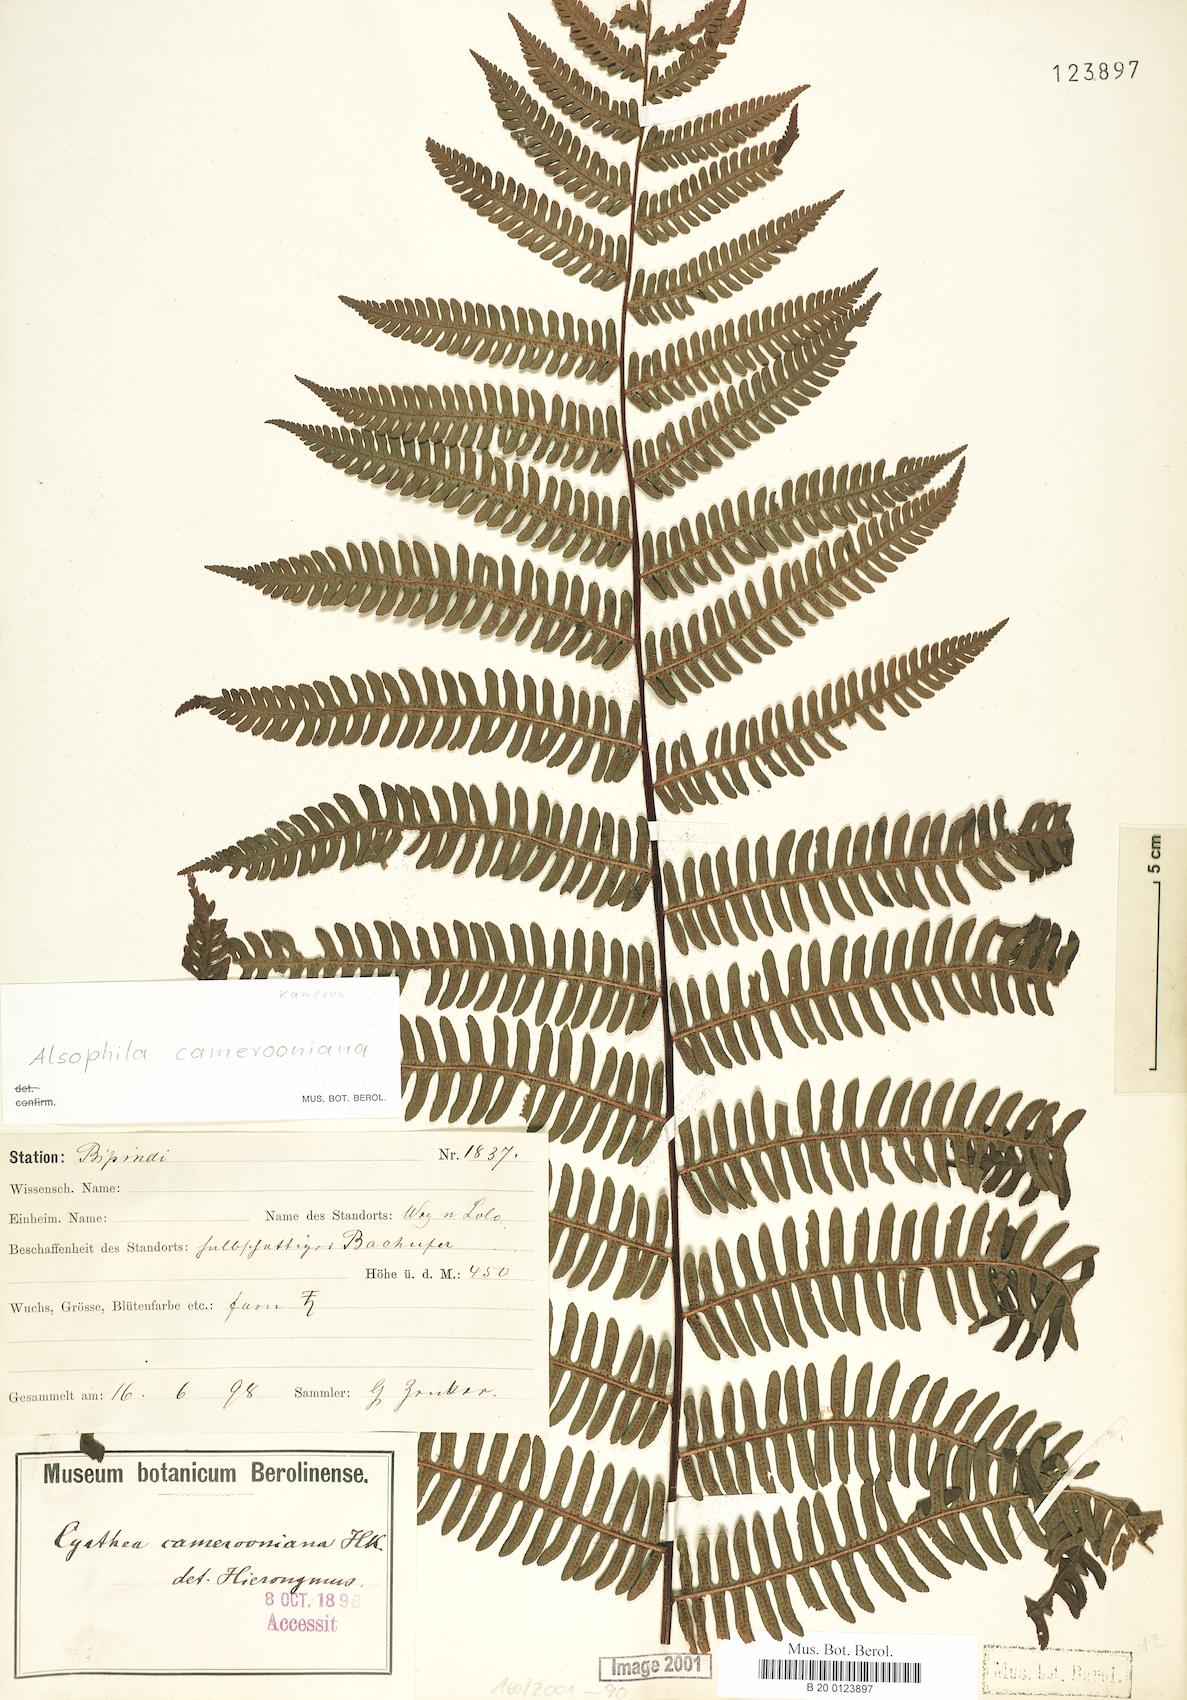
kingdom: Plantae
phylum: Tracheophyta
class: Polypodiopsida
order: Cyatheales
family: Cyatheaceae
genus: Alsophila
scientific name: Alsophila camerooniana
